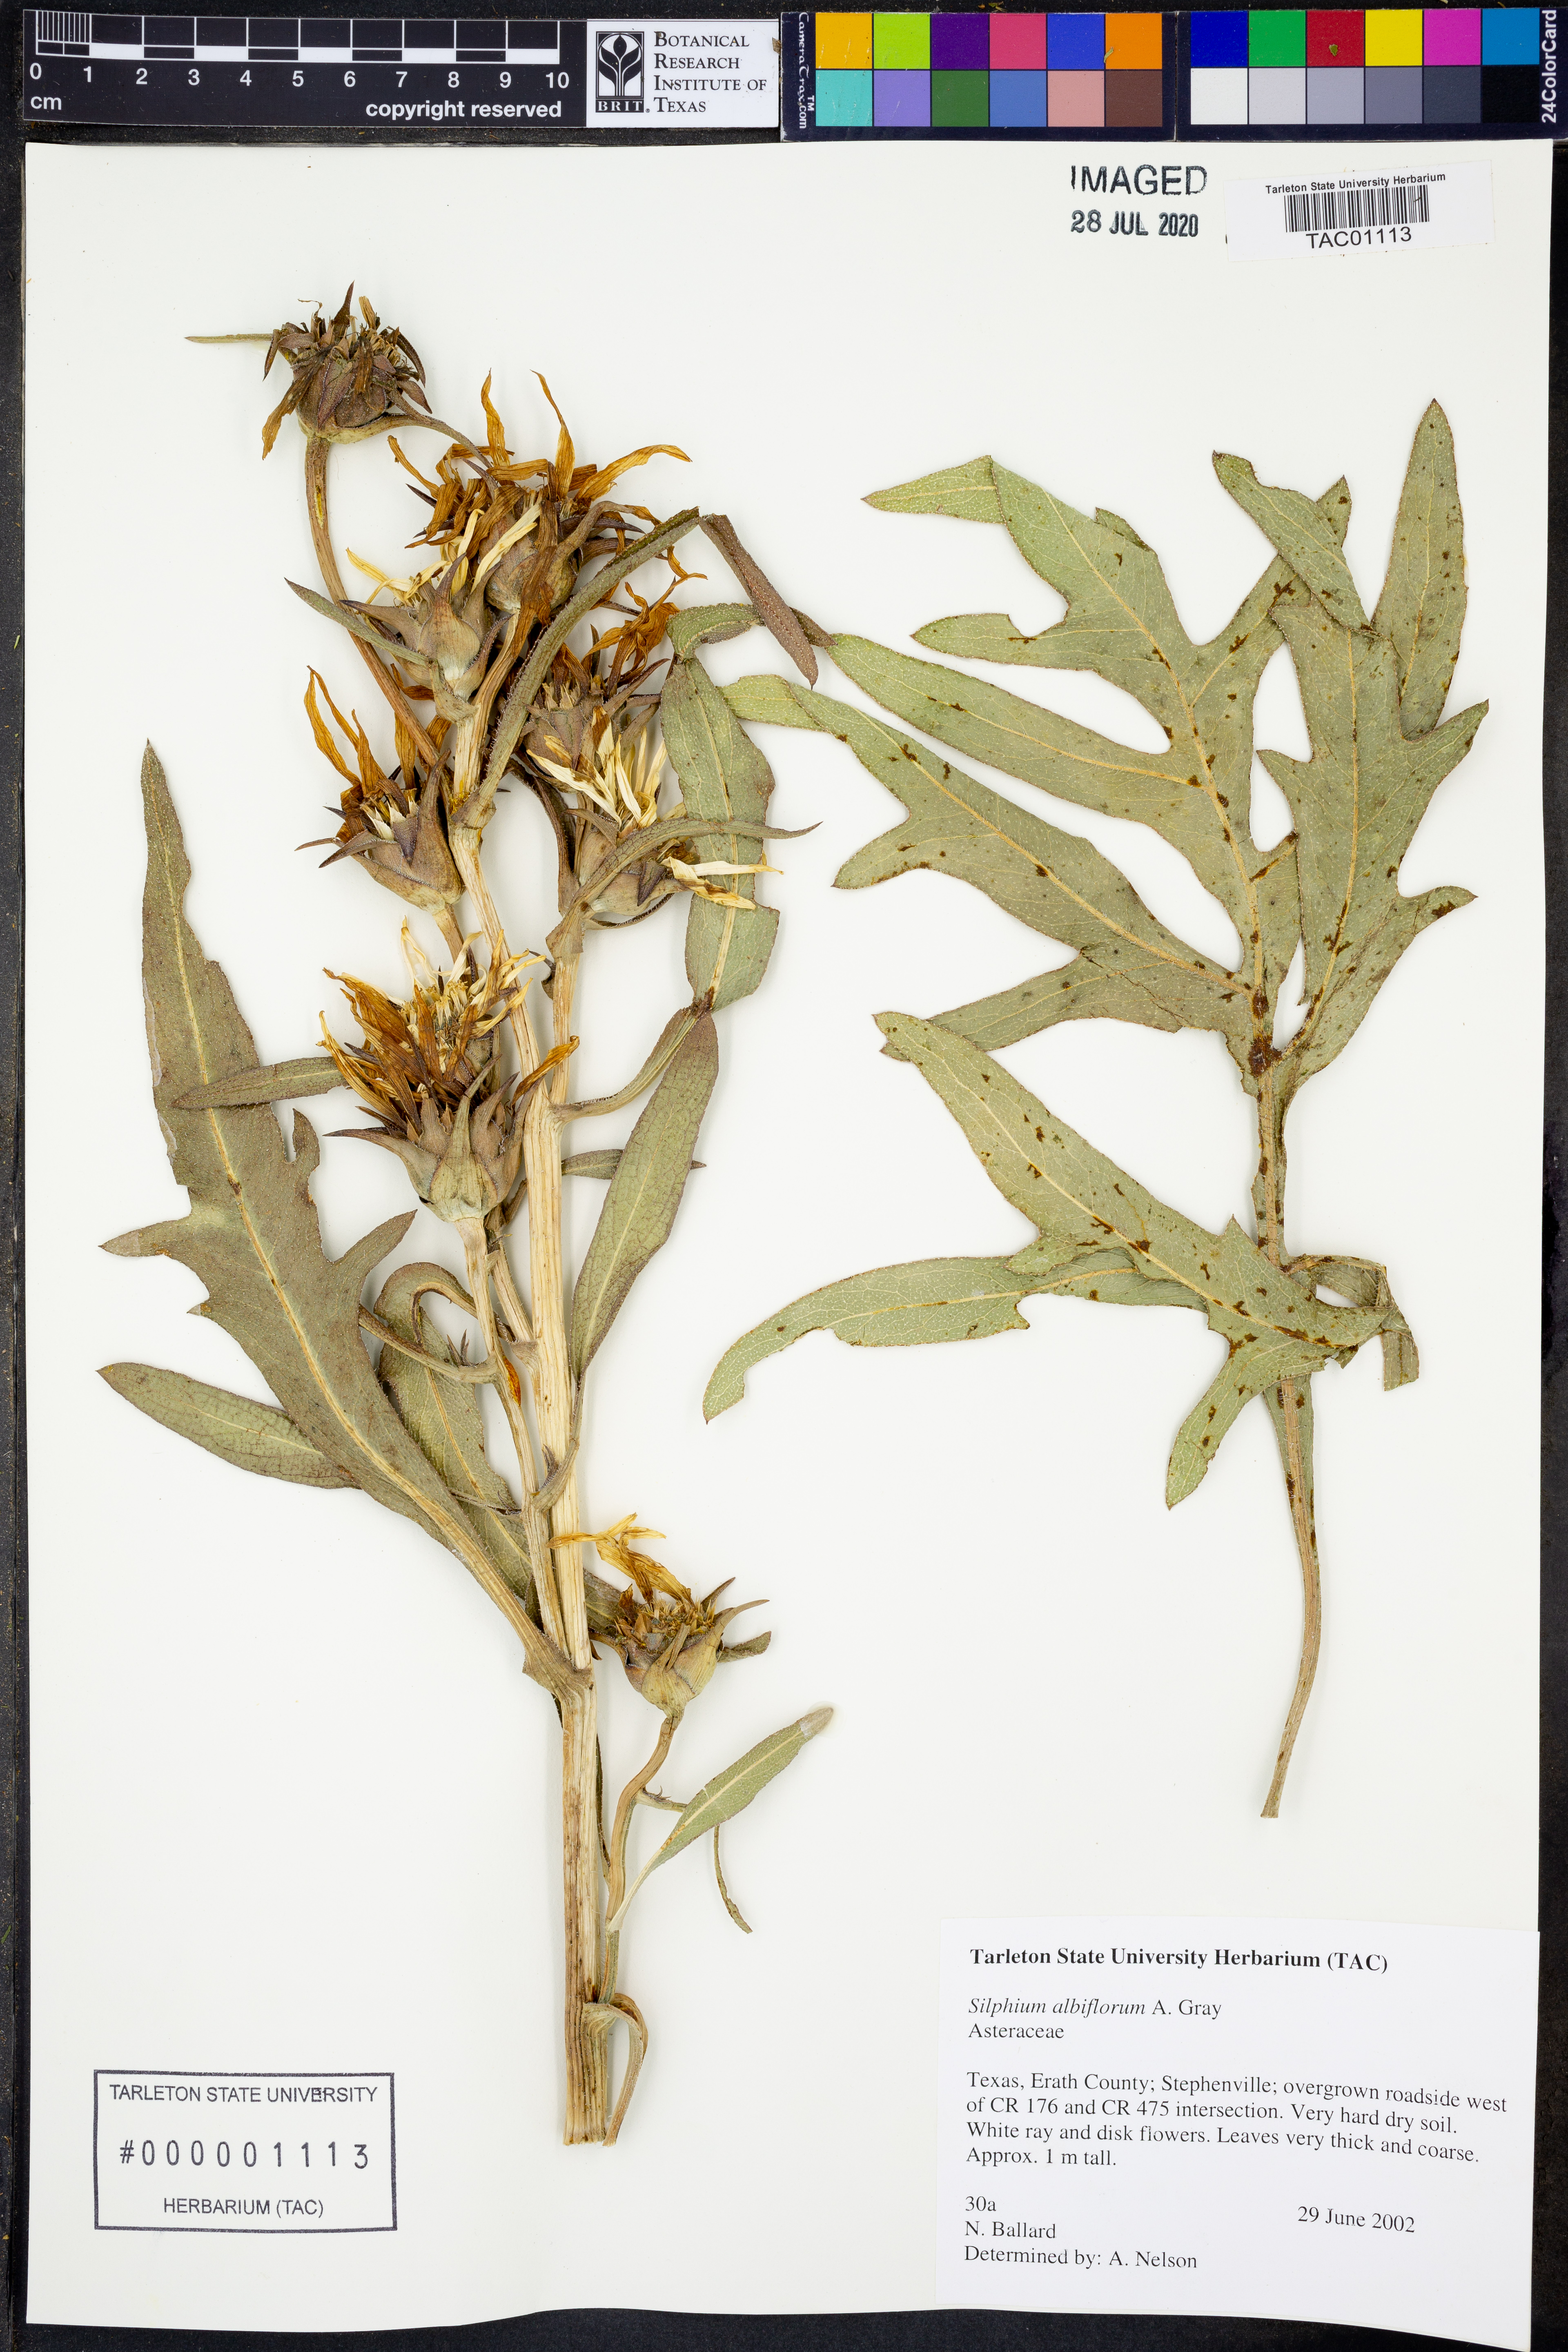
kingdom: Plantae
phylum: Tracheophyta
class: Magnoliopsida
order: Asterales
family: Asteraceae
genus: Silphium
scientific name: Silphium albiflorum
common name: White rosinweed
